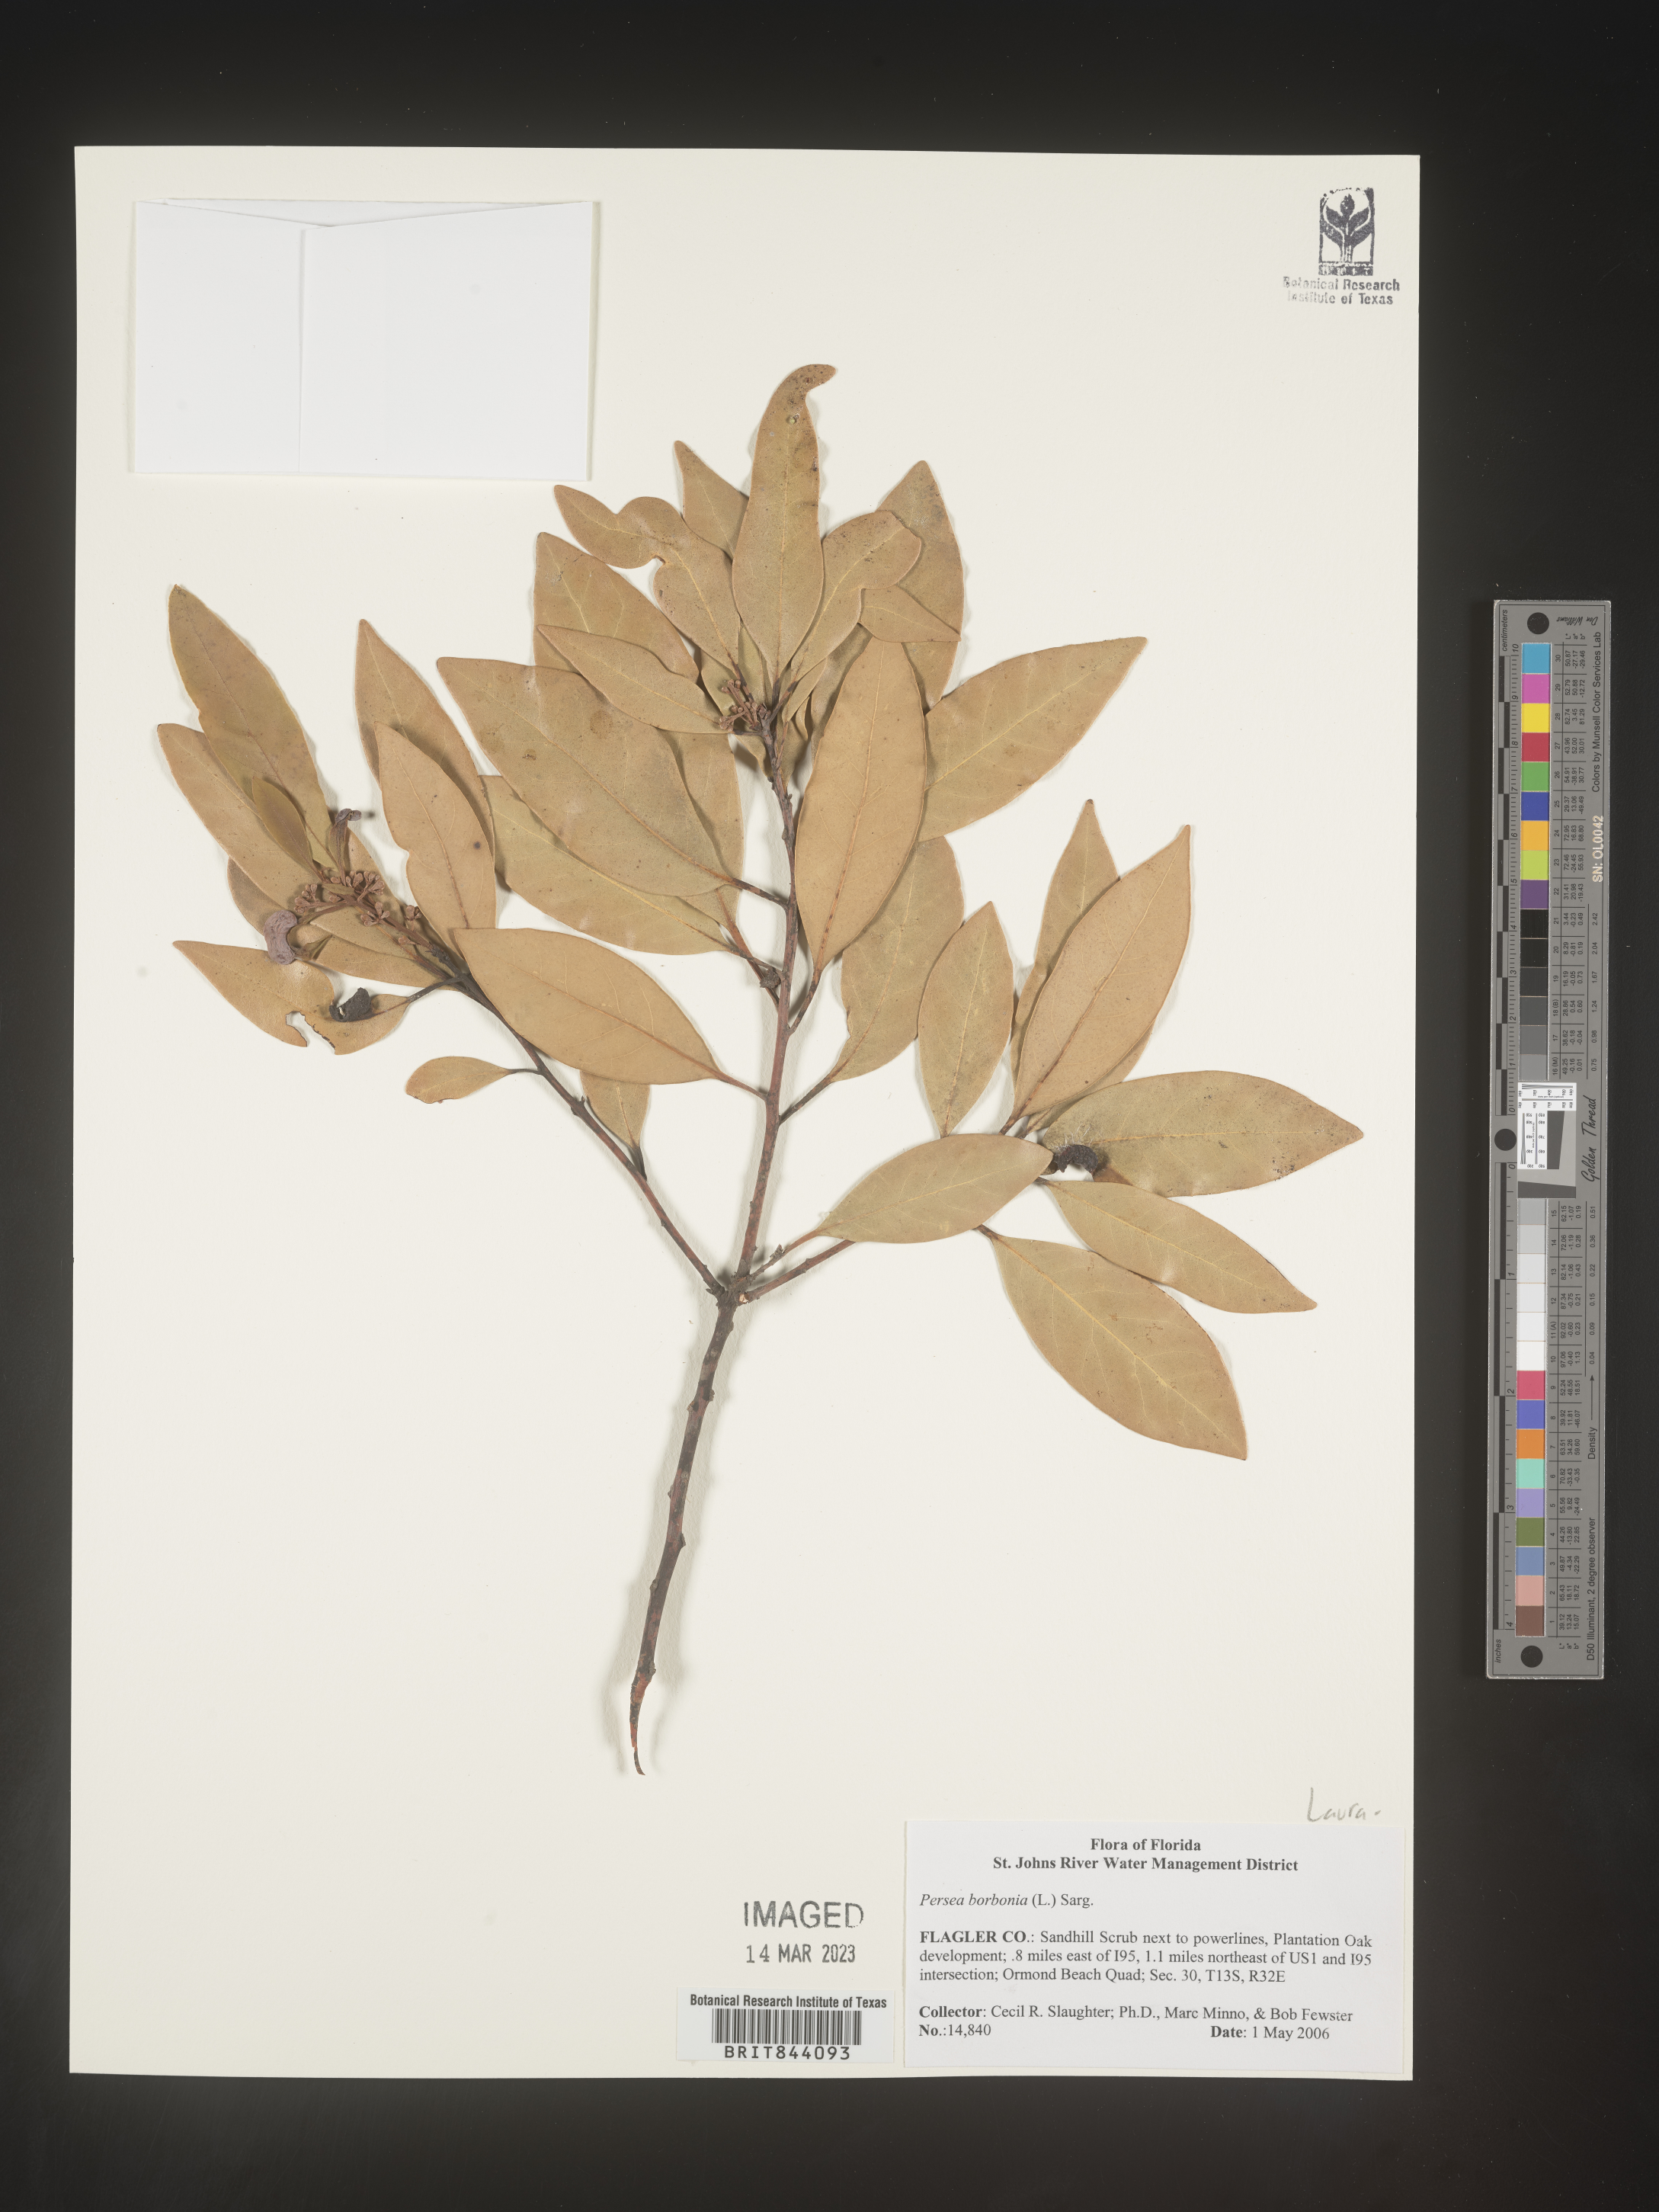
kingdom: Plantae
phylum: Tracheophyta
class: Magnoliopsida
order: Laurales
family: Lauraceae
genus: Persea
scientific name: Persea borbonia
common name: Redbay
